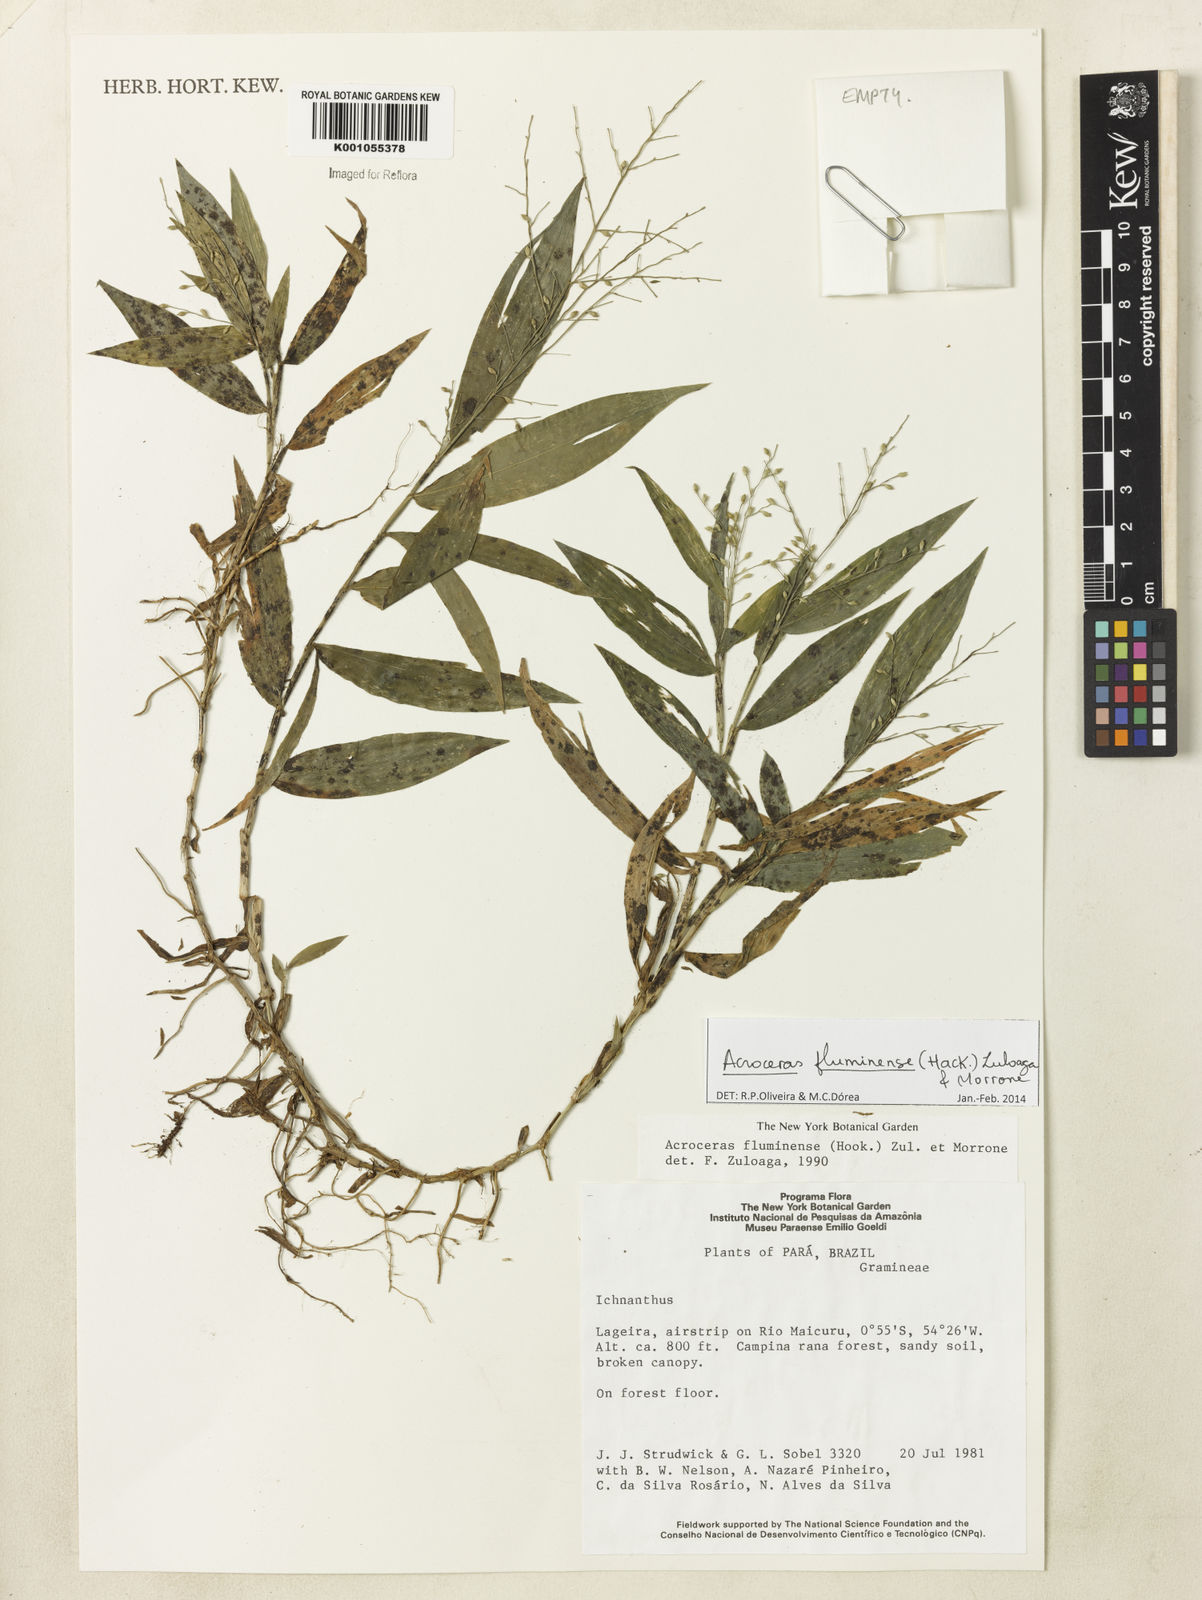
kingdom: Plantae
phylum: Tracheophyta
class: Liliopsida
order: Poales
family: Poaceae
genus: Acroceras
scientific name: Acroceras fluminense
